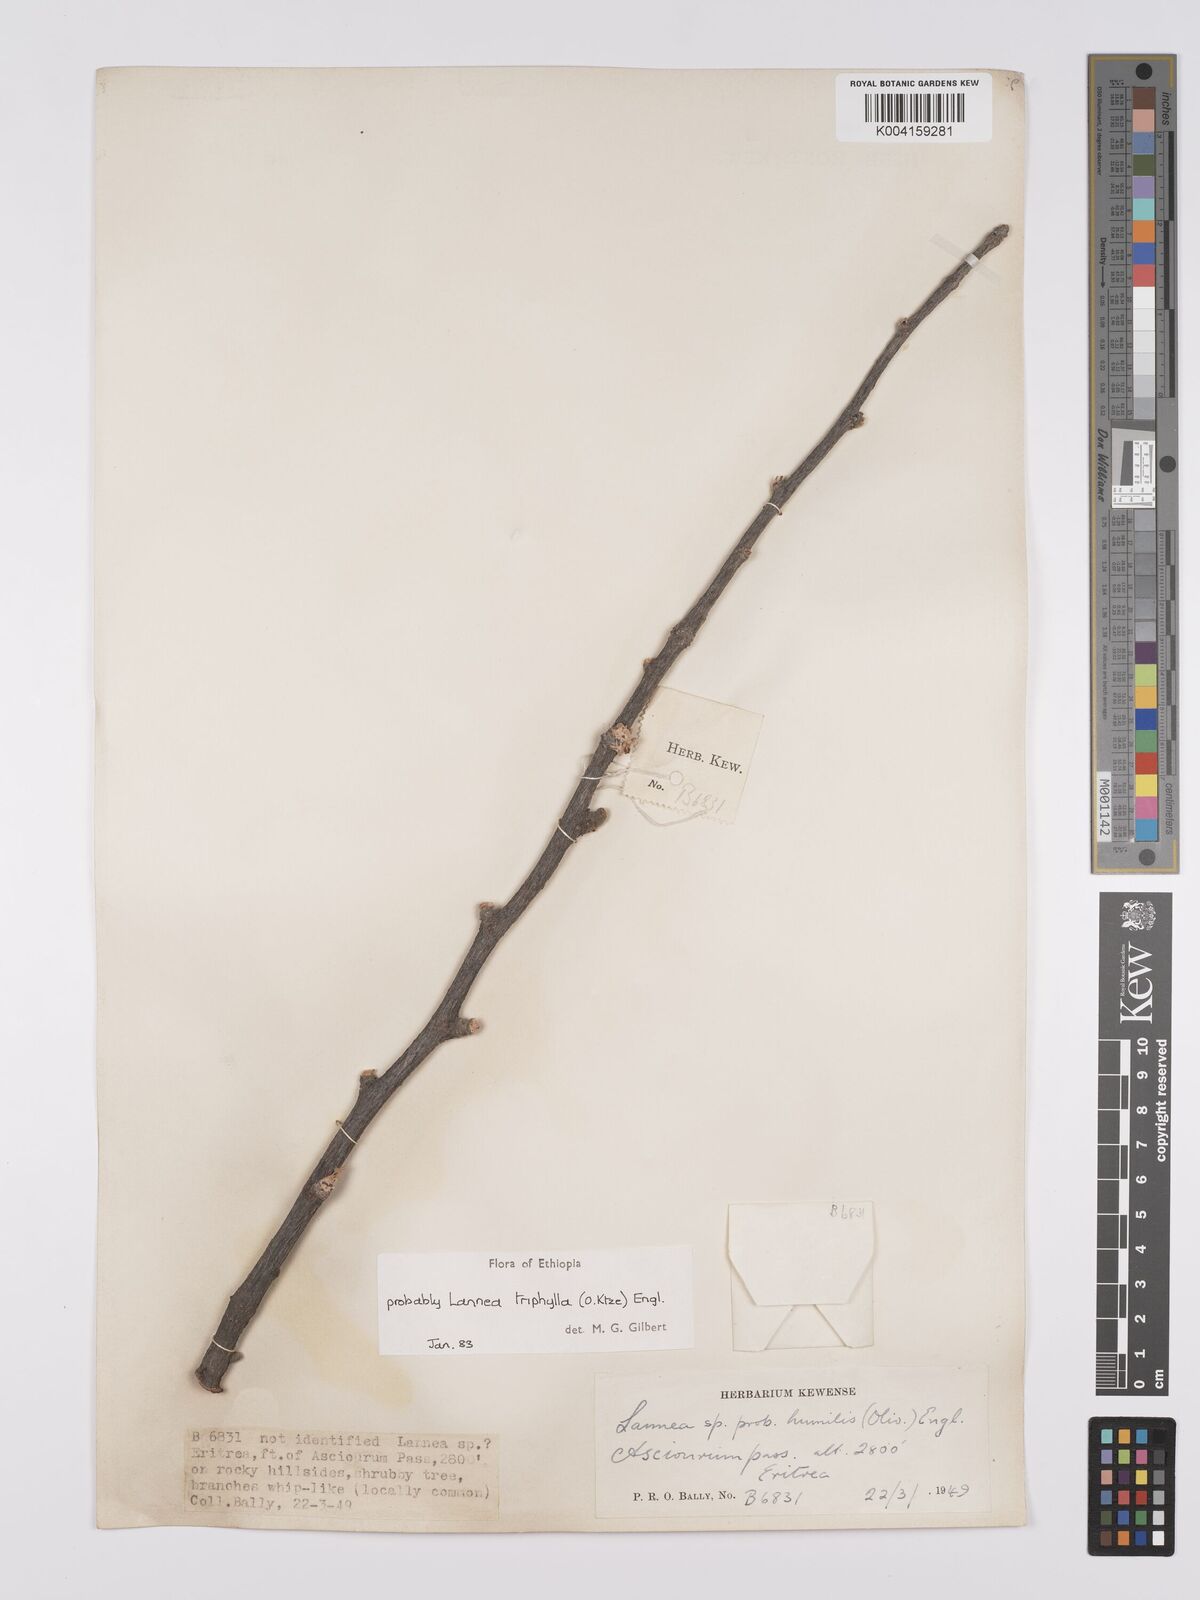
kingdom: Plantae
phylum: Tracheophyta
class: Magnoliopsida
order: Sapindales
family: Anacardiaceae
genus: Lannea
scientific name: Lannea triphylla
